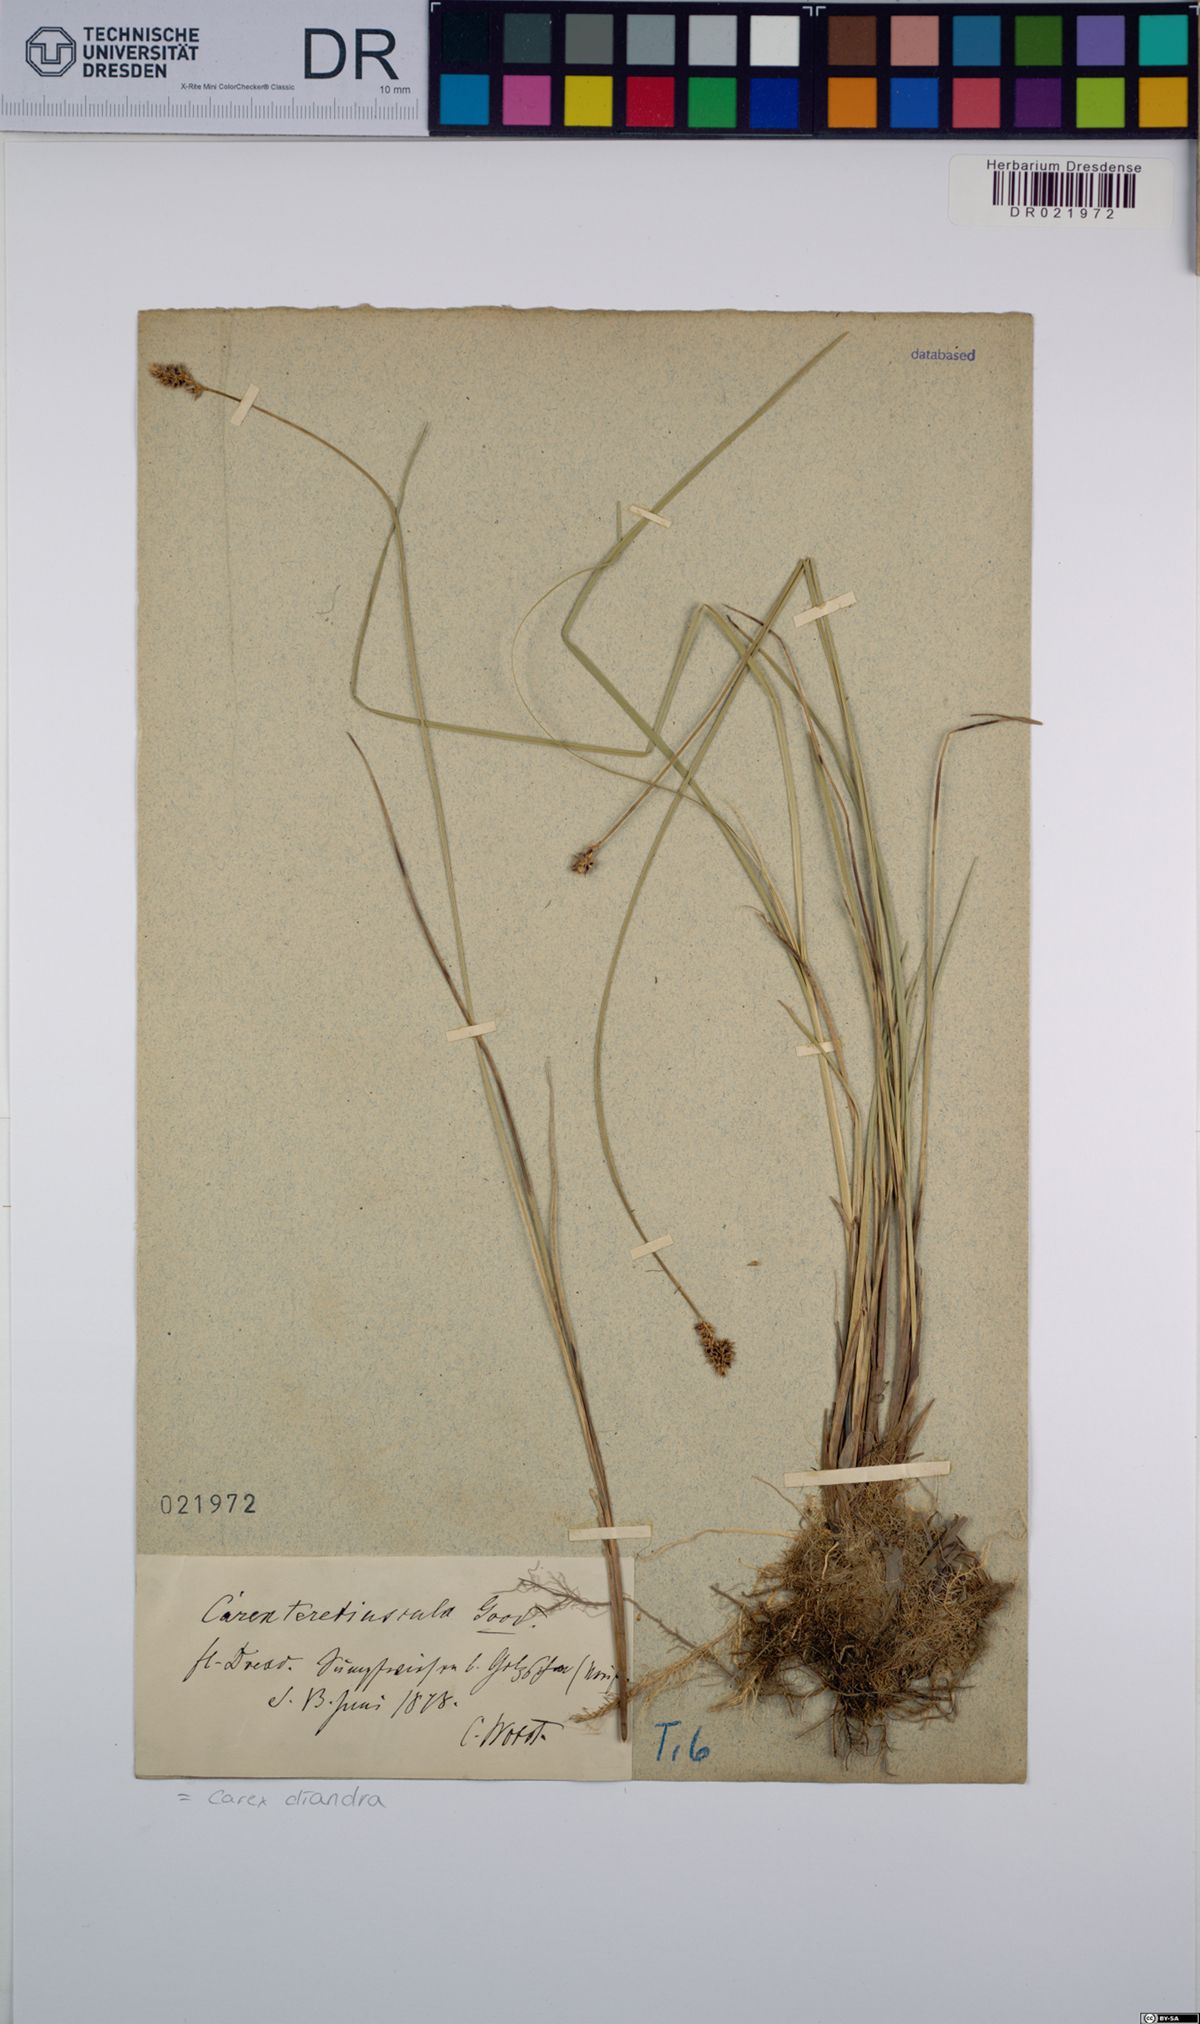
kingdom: Plantae
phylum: Tracheophyta
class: Liliopsida
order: Poales
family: Cyperaceae
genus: Carex
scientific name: Carex diandra
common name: Lesser tussock-sedge
